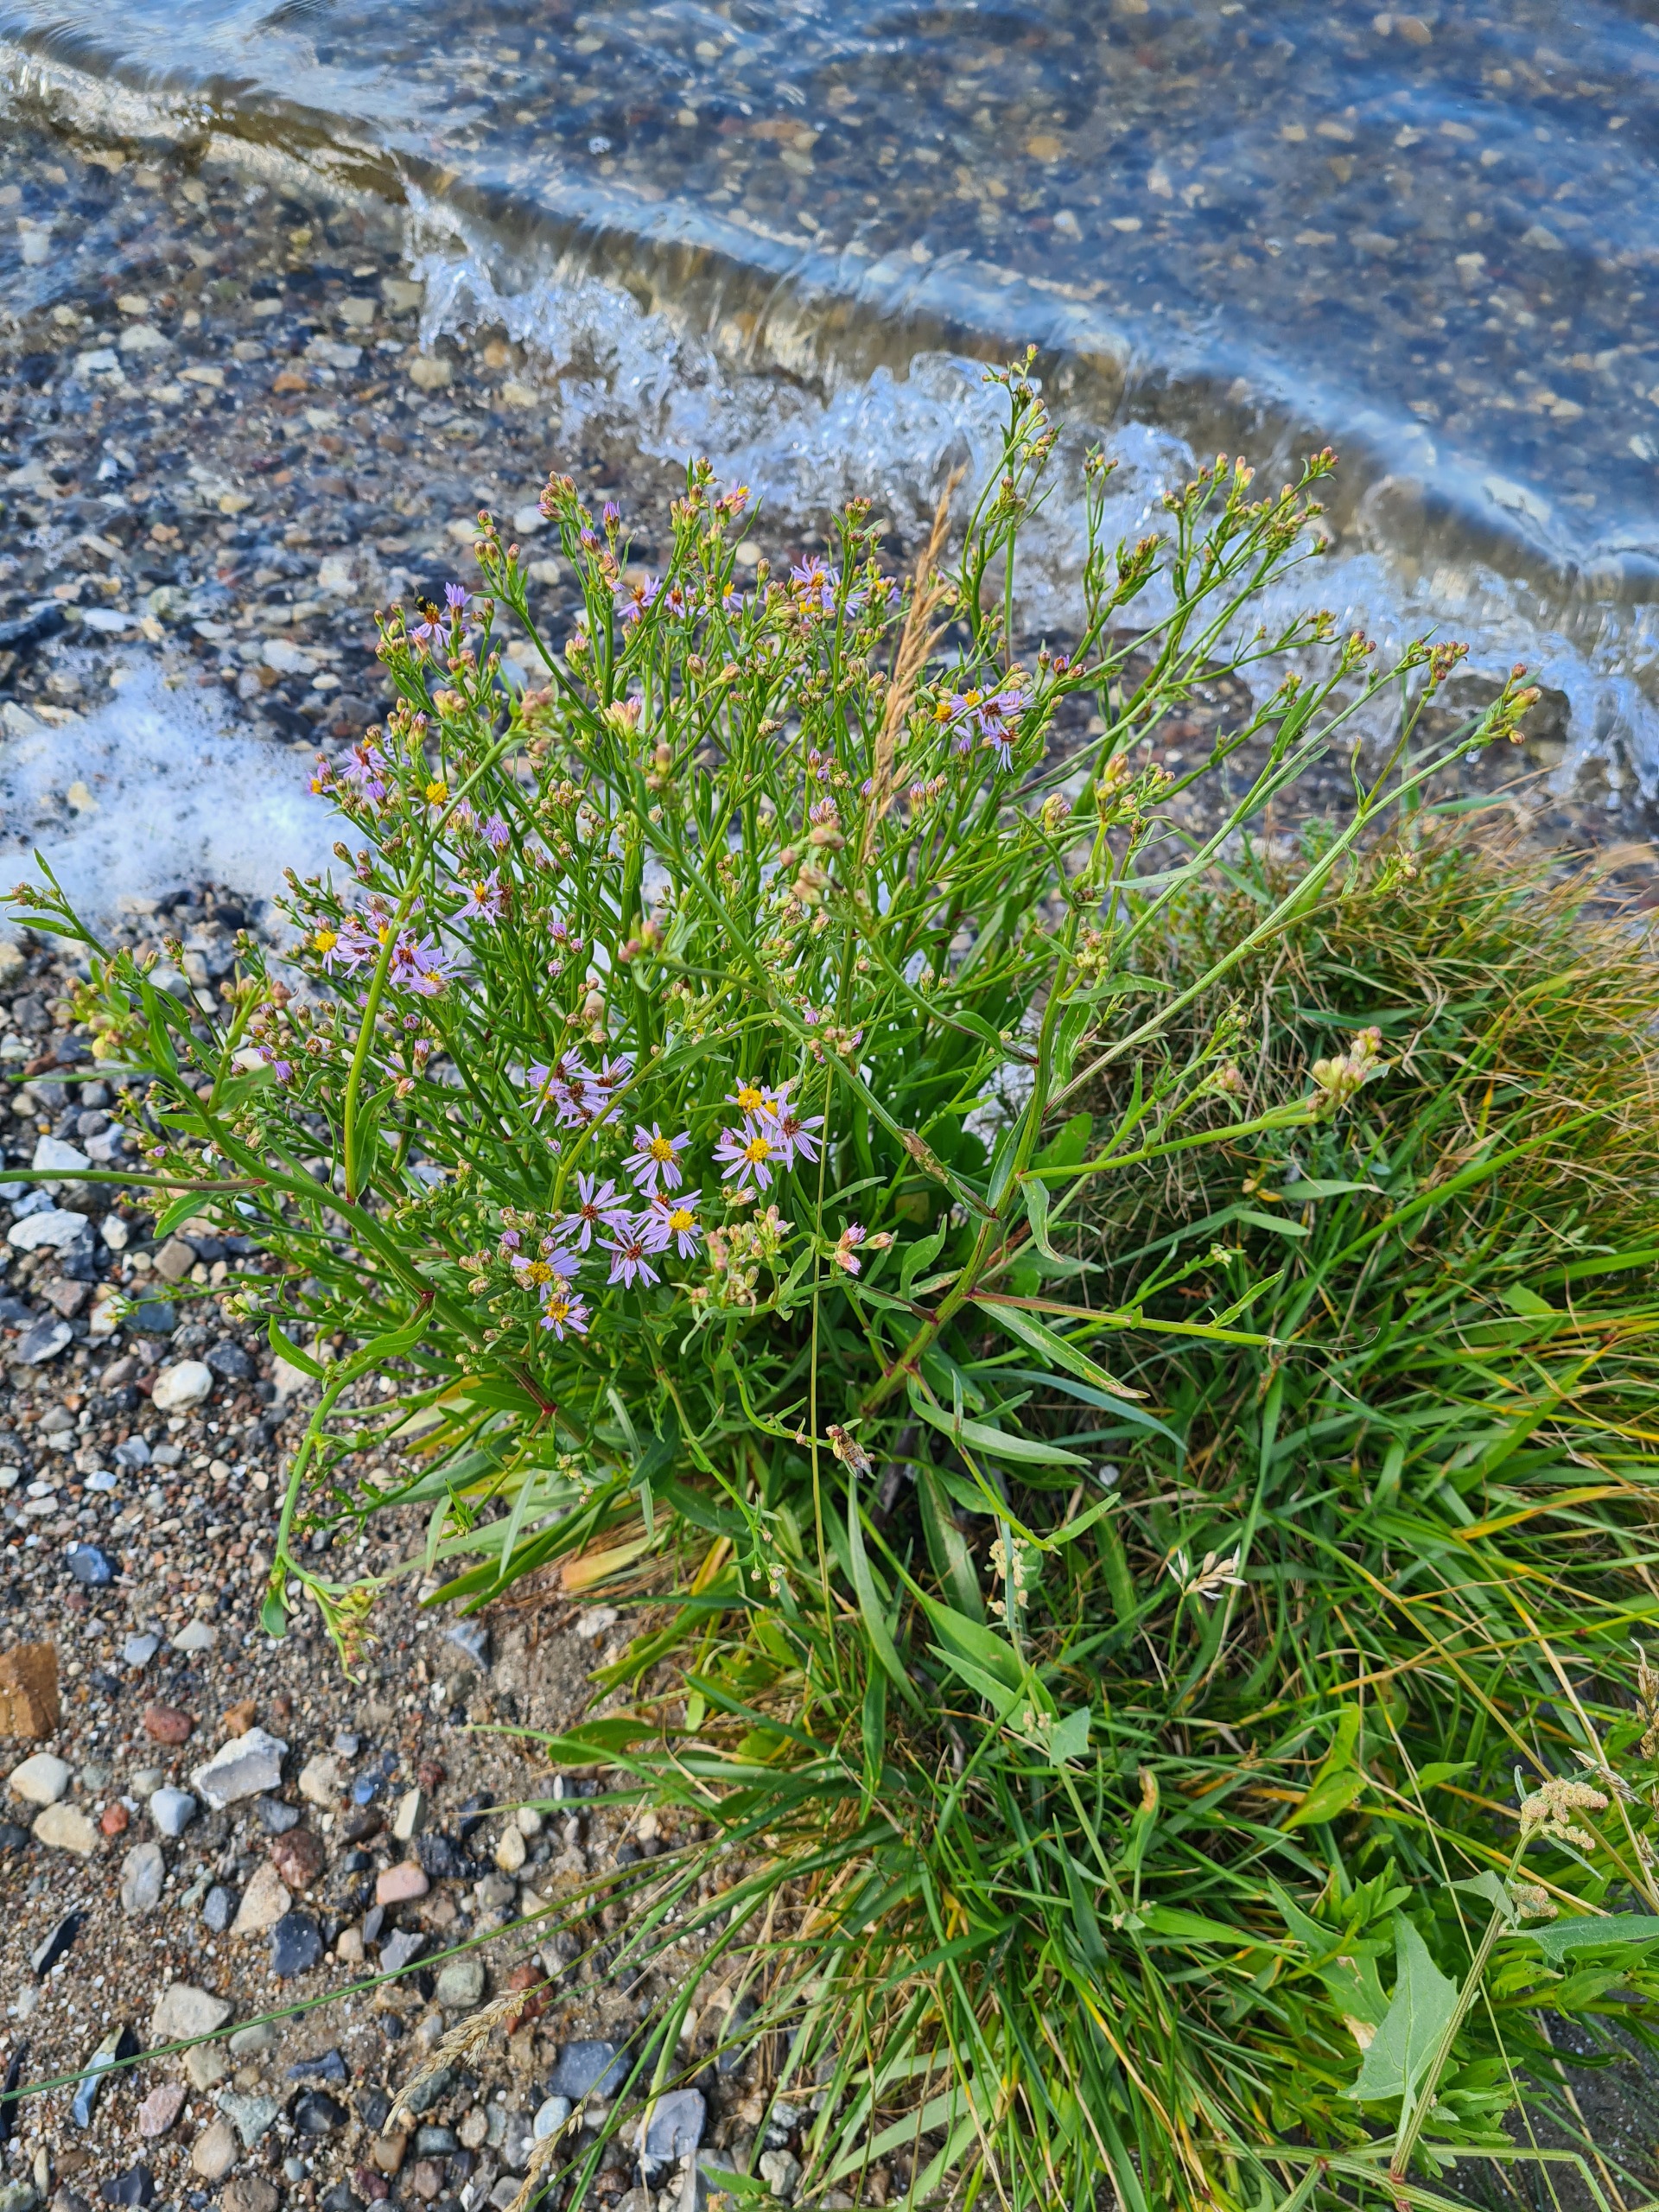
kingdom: Plantae
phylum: Tracheophyta
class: Magnoliopsida
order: Asterales
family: Asteraceae
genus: Tripolium
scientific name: Tripolium pannonicum
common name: Strandasters
